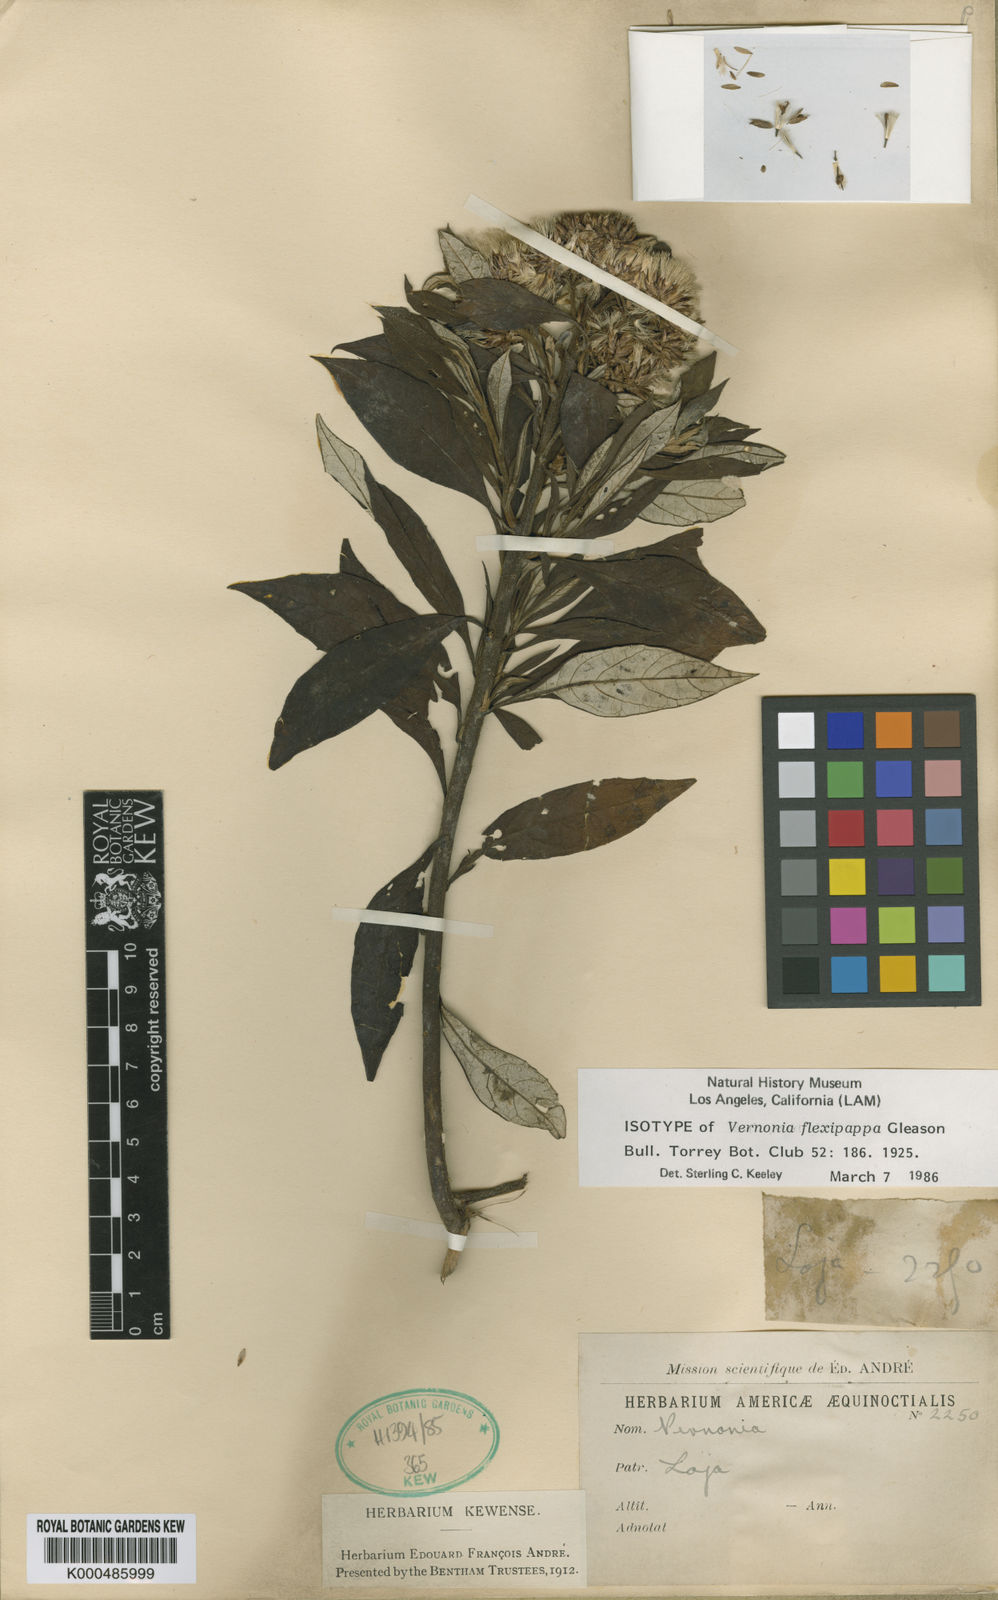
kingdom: Plantae
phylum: Tracheophyta
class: Magnoliopsida
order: Asterales
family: Asteraceae
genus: Cuatrecasanthus
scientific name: Cuatrecasanthus flexipappus
